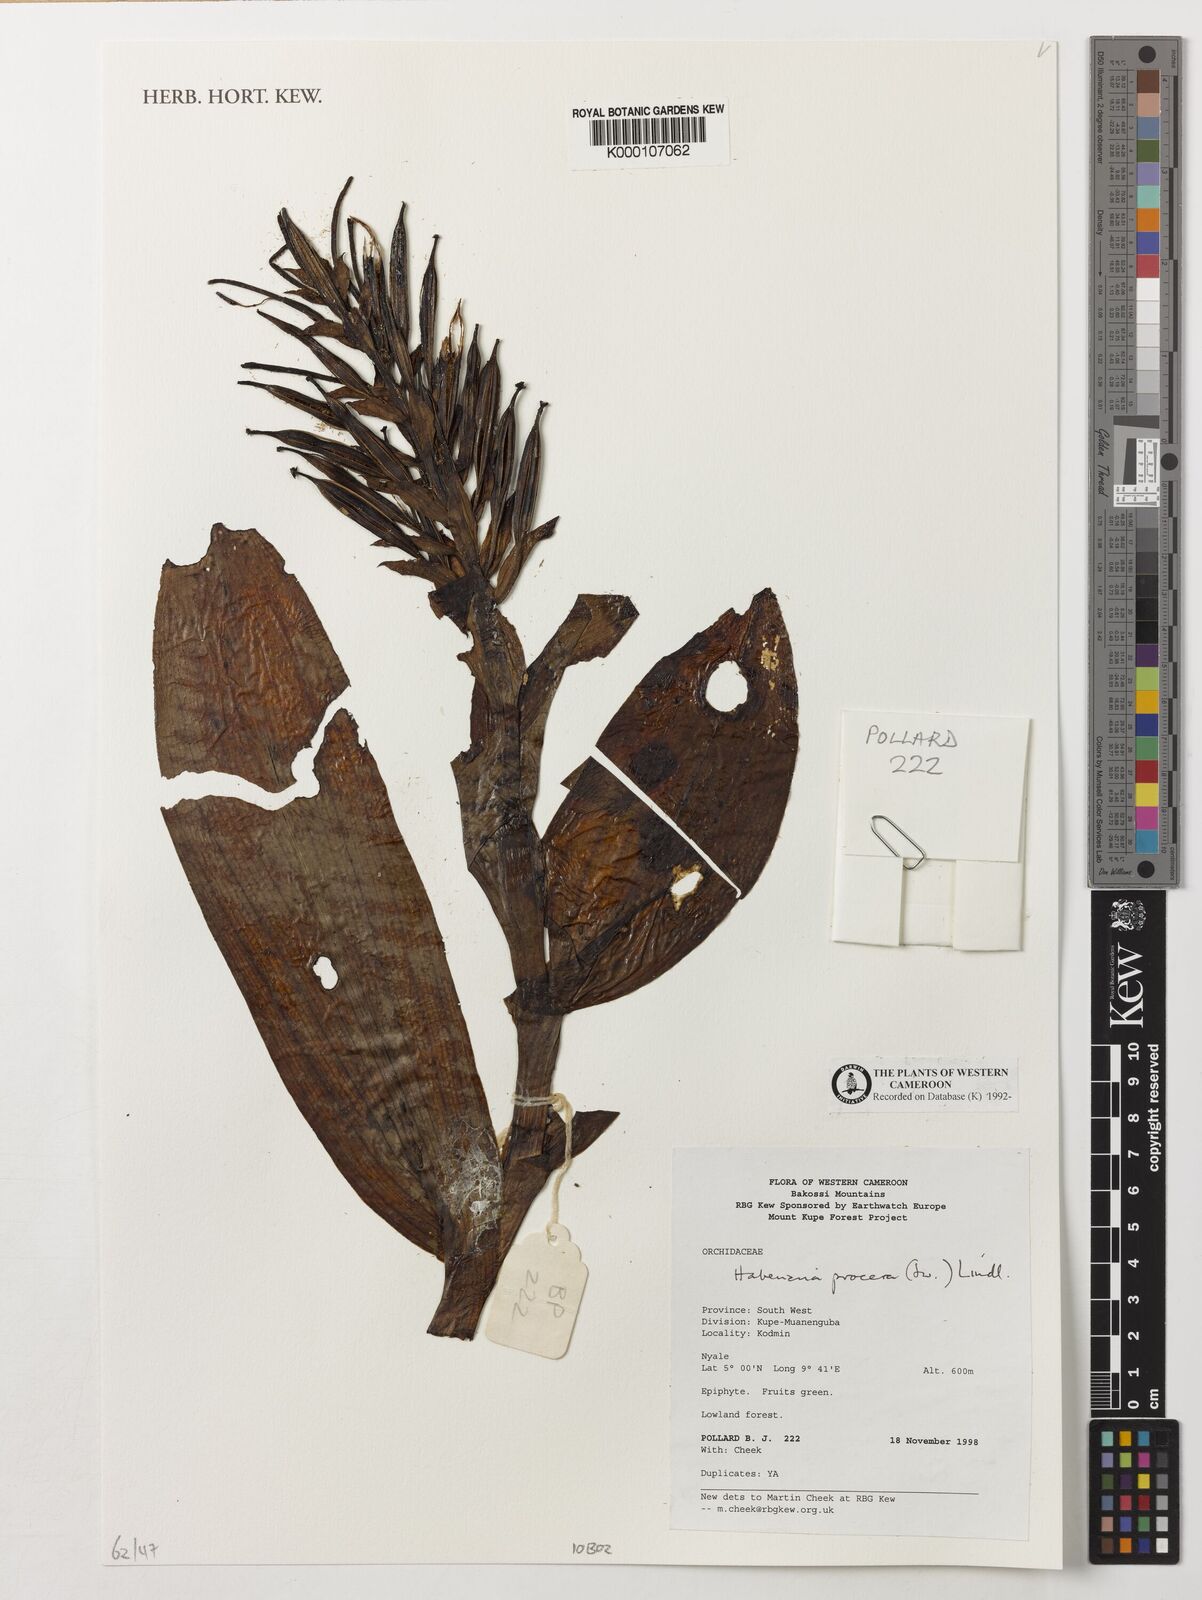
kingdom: Plantae
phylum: Tracheophyta
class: Liliopsida
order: Asparagales
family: Orchidaceae
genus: Habenaria
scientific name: Habenaria procera
